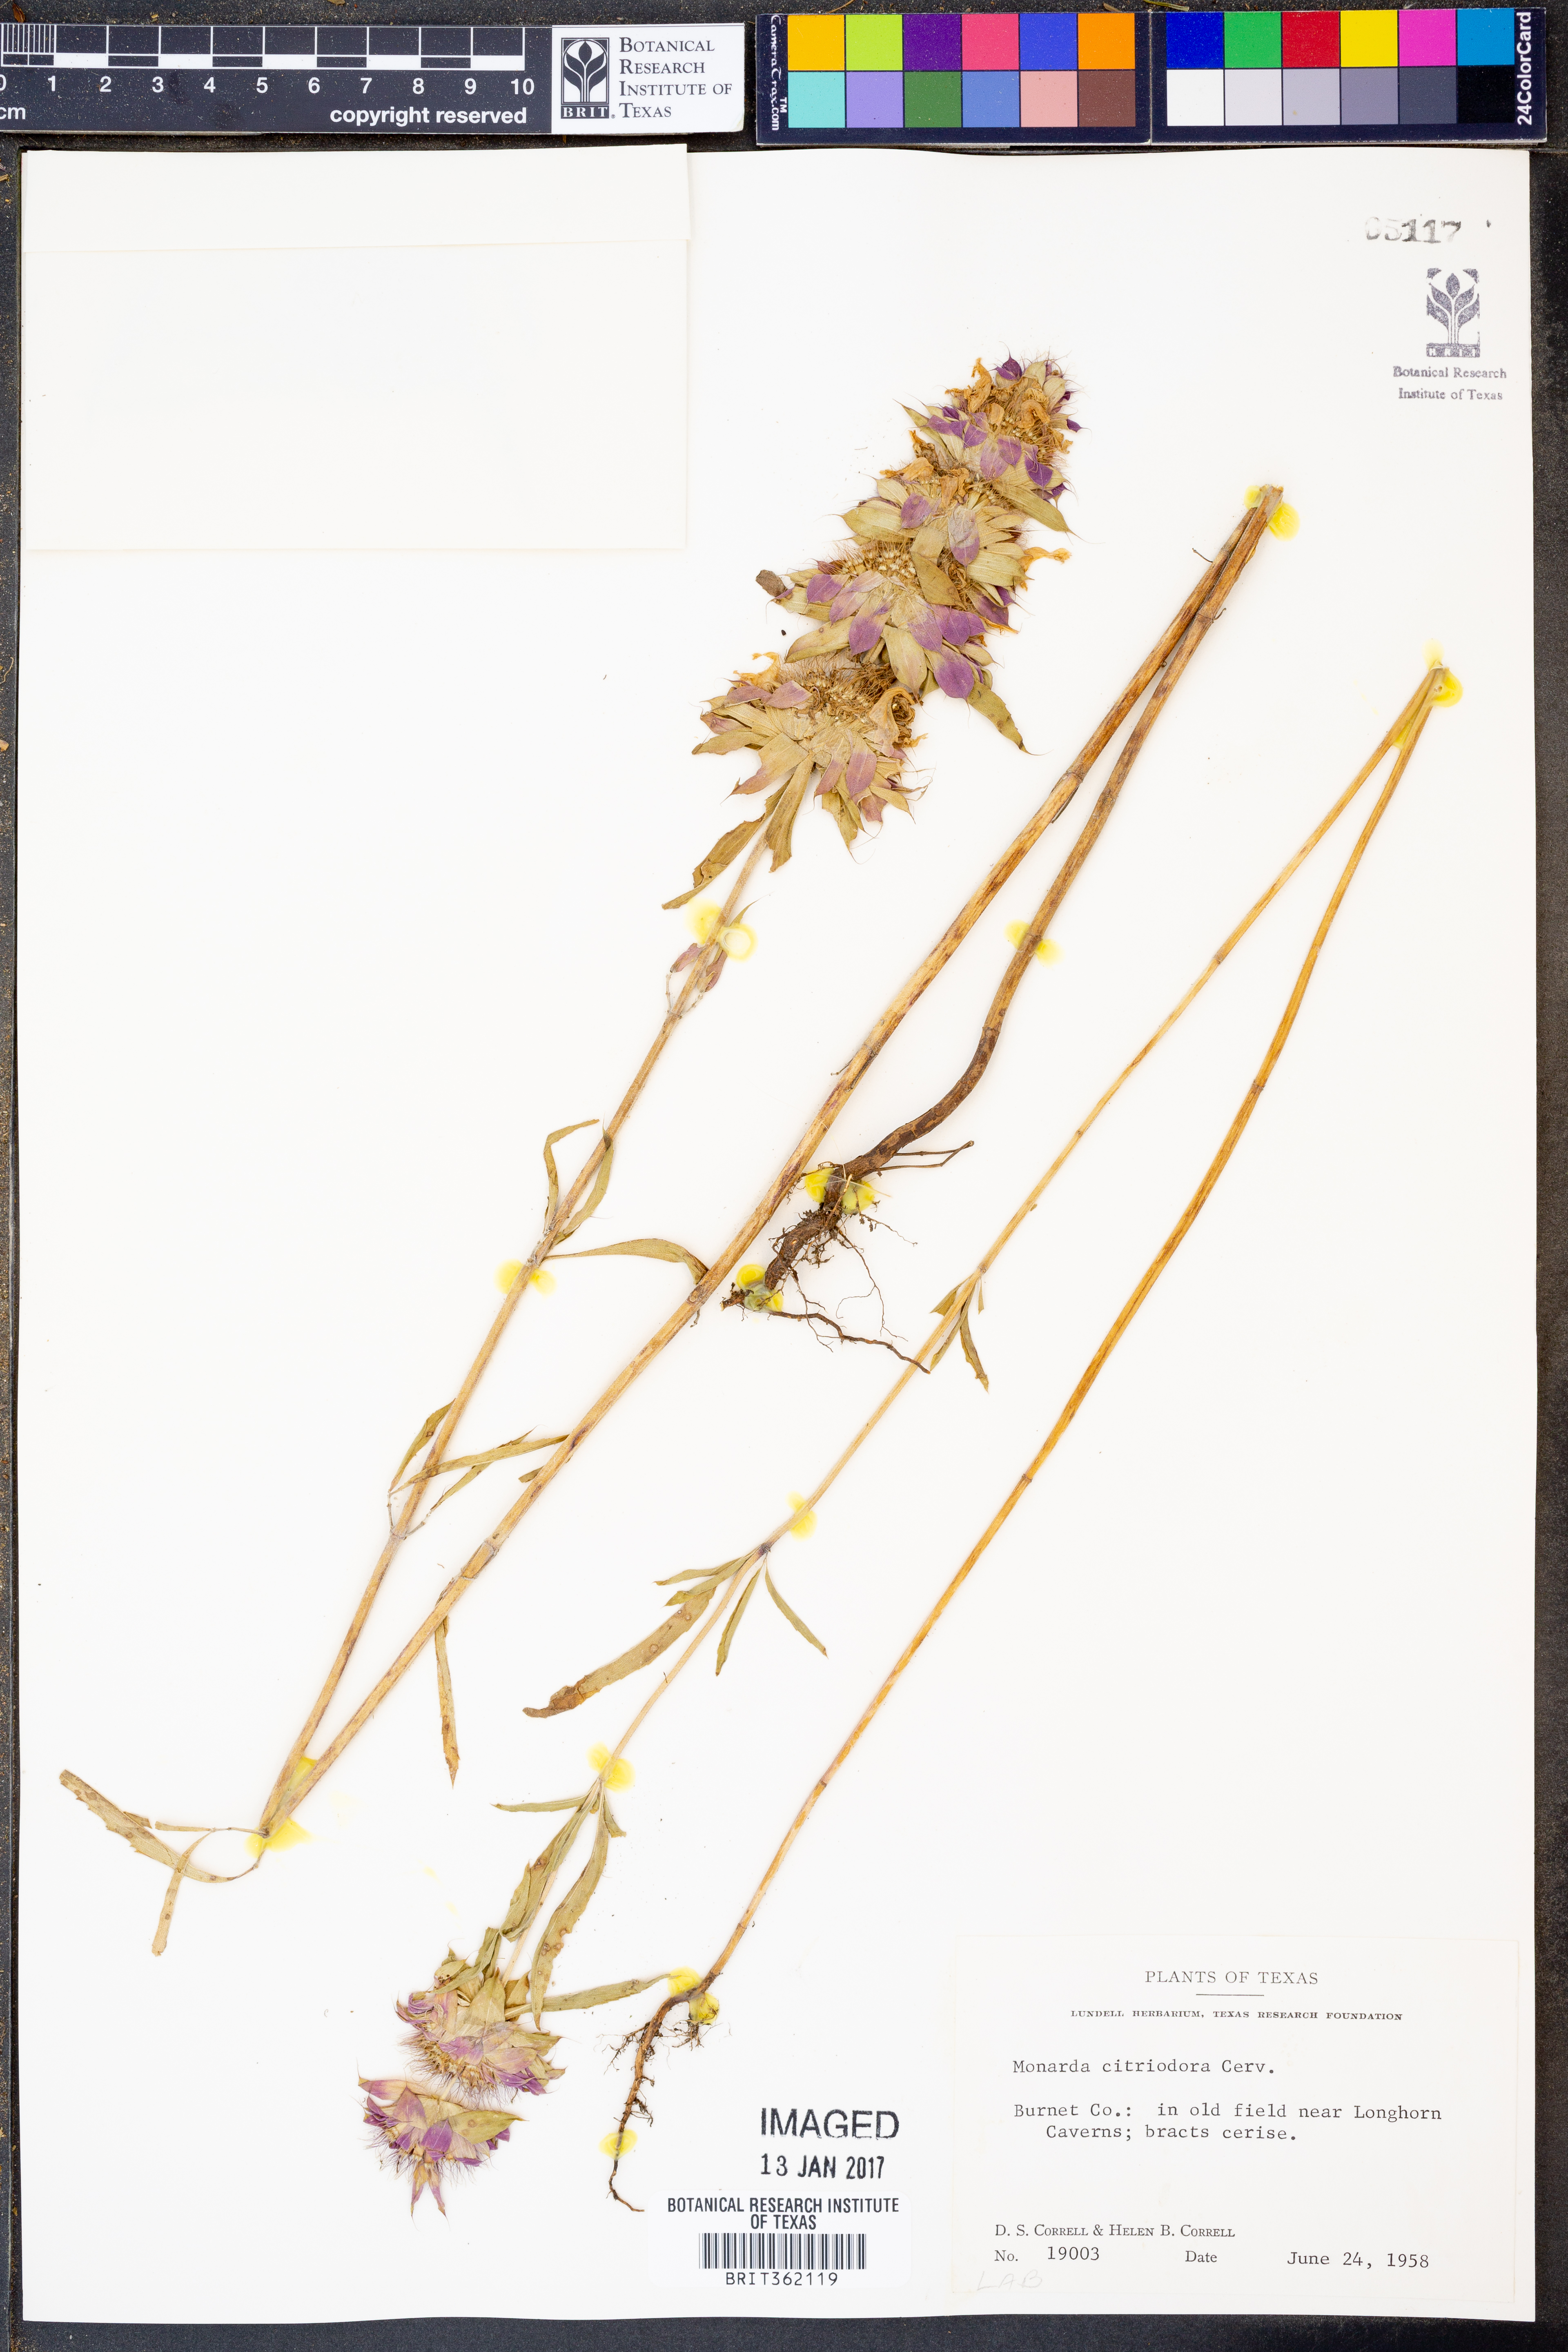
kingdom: Plantae
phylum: Tracheophyta
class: Magnoliopsida
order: Lamiales
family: Lamiaceae
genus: Monarda
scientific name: Monarda citriodora
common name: Lemon beebalm
